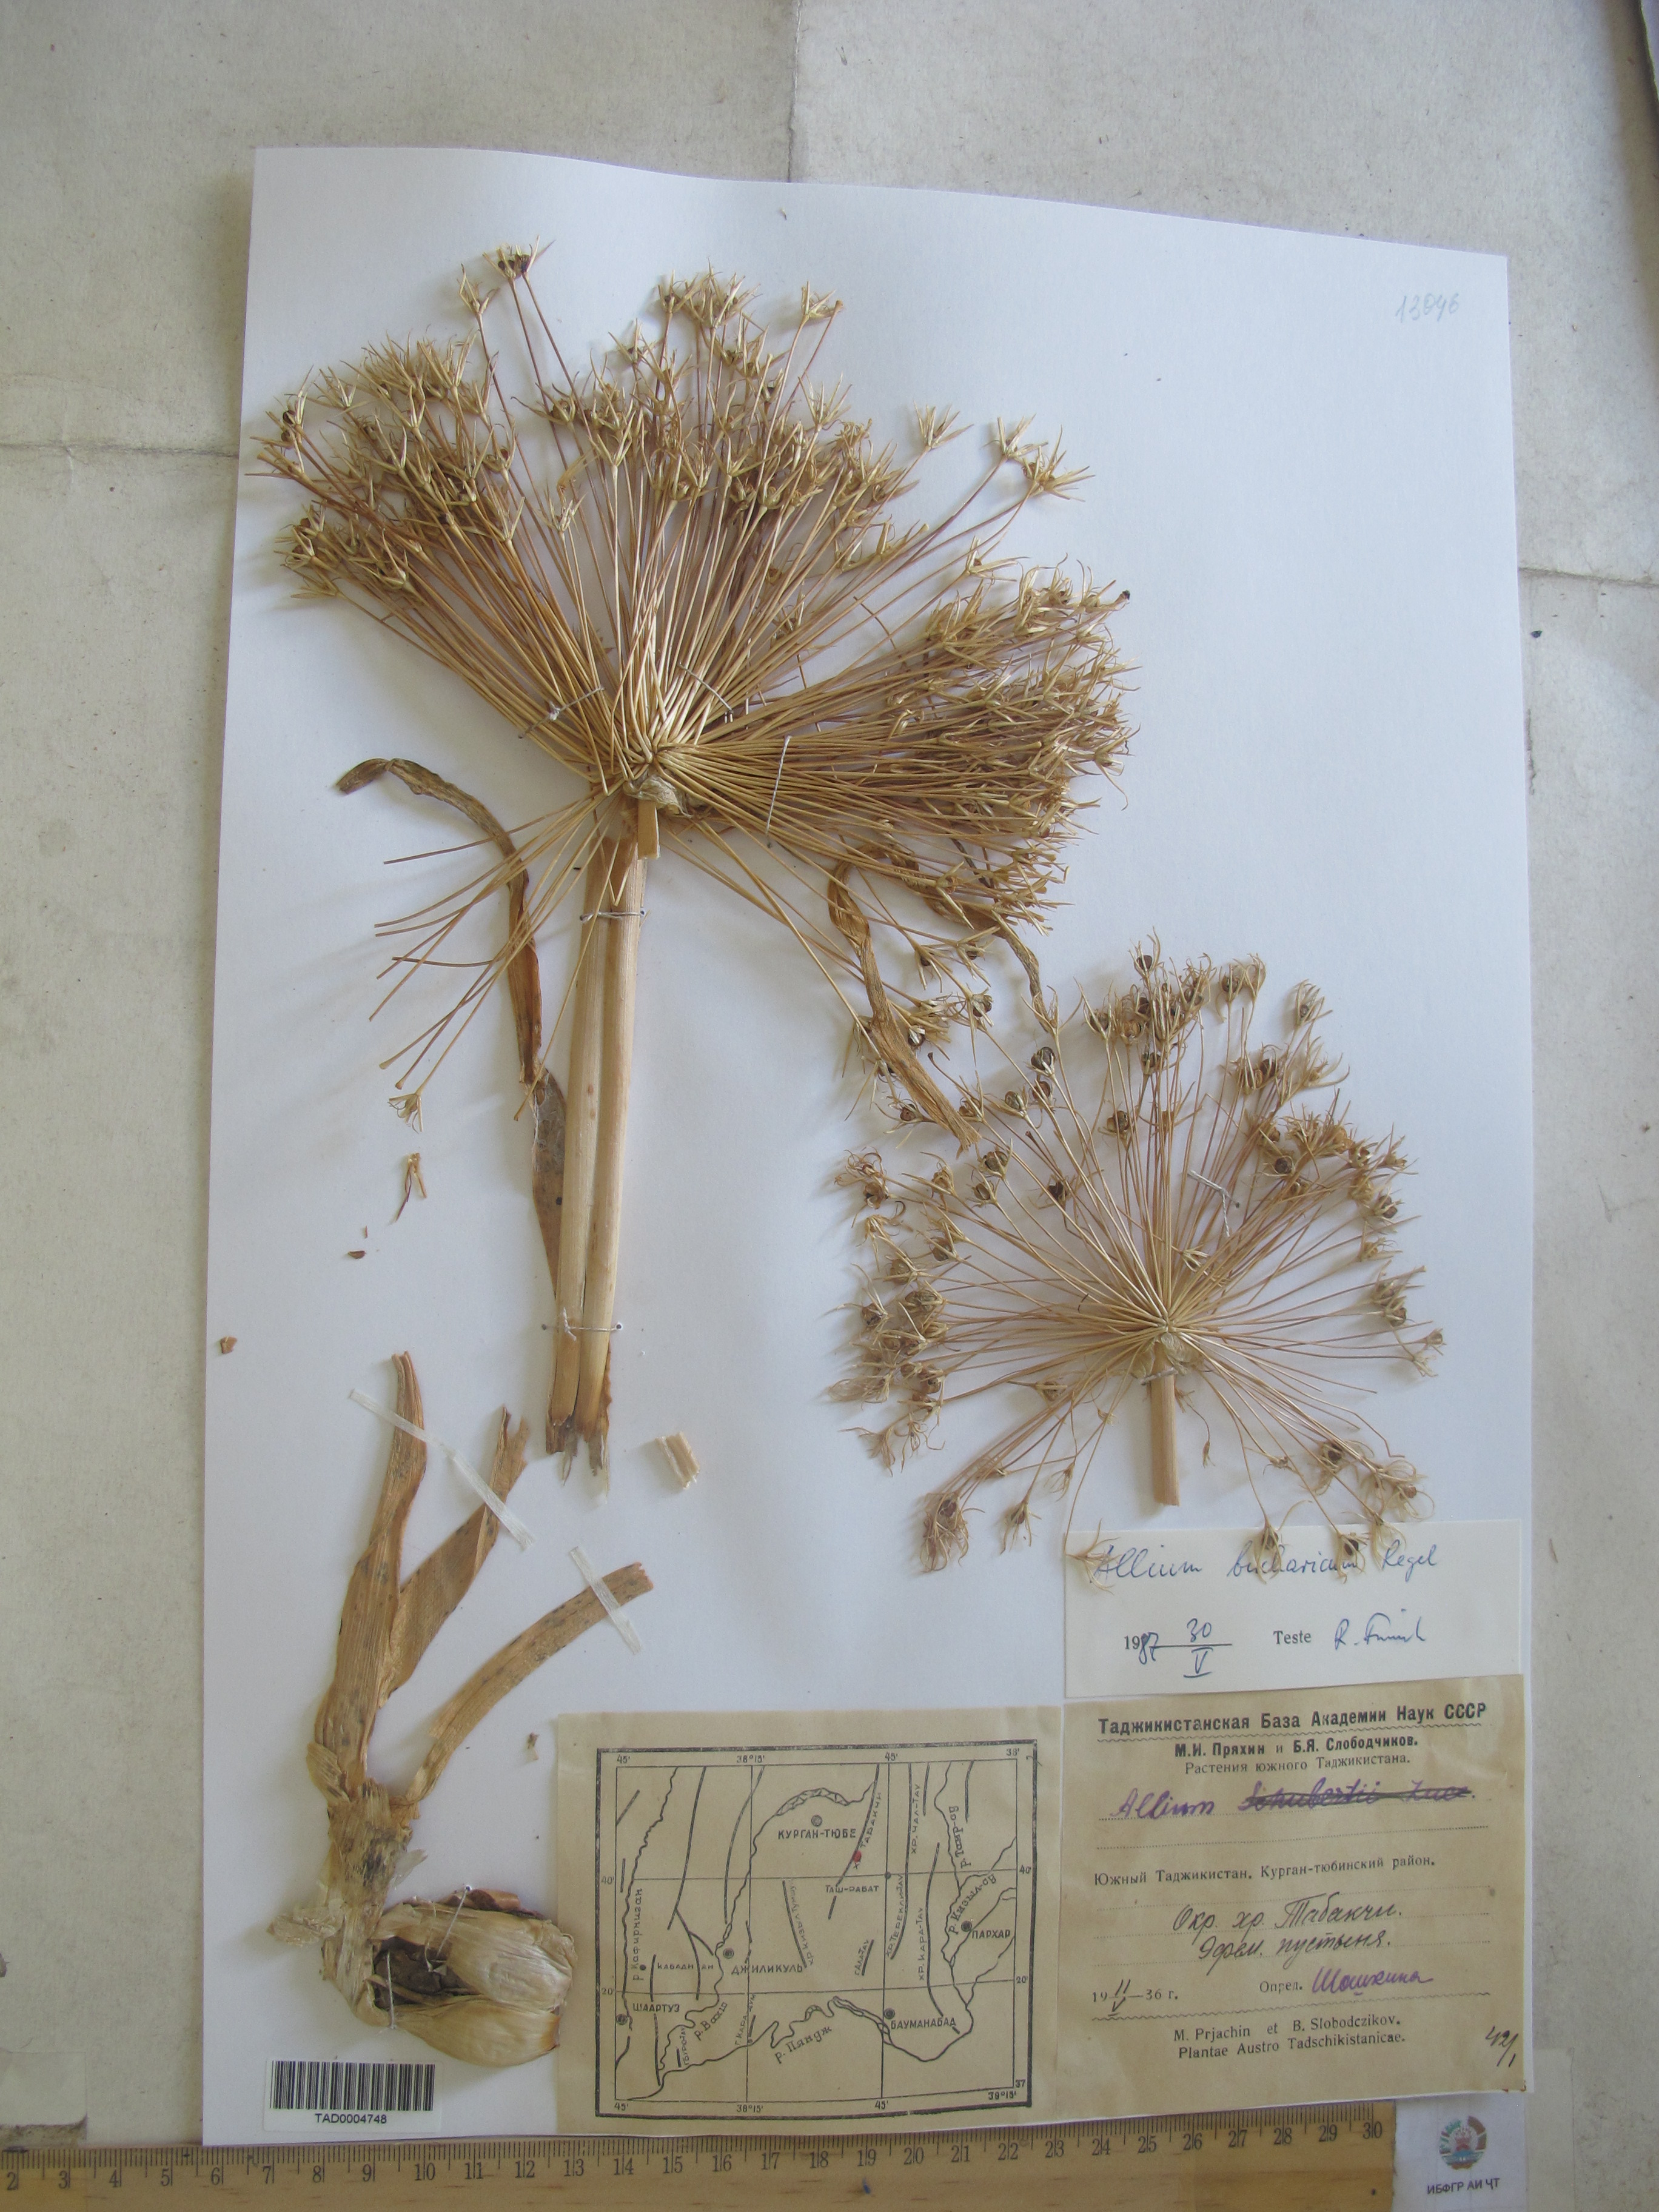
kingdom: Plantae
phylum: Tracheophyta
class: Liliopsida
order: Asparagales
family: Amaryllidaceae
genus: Allium
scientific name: Allium bucharicum
